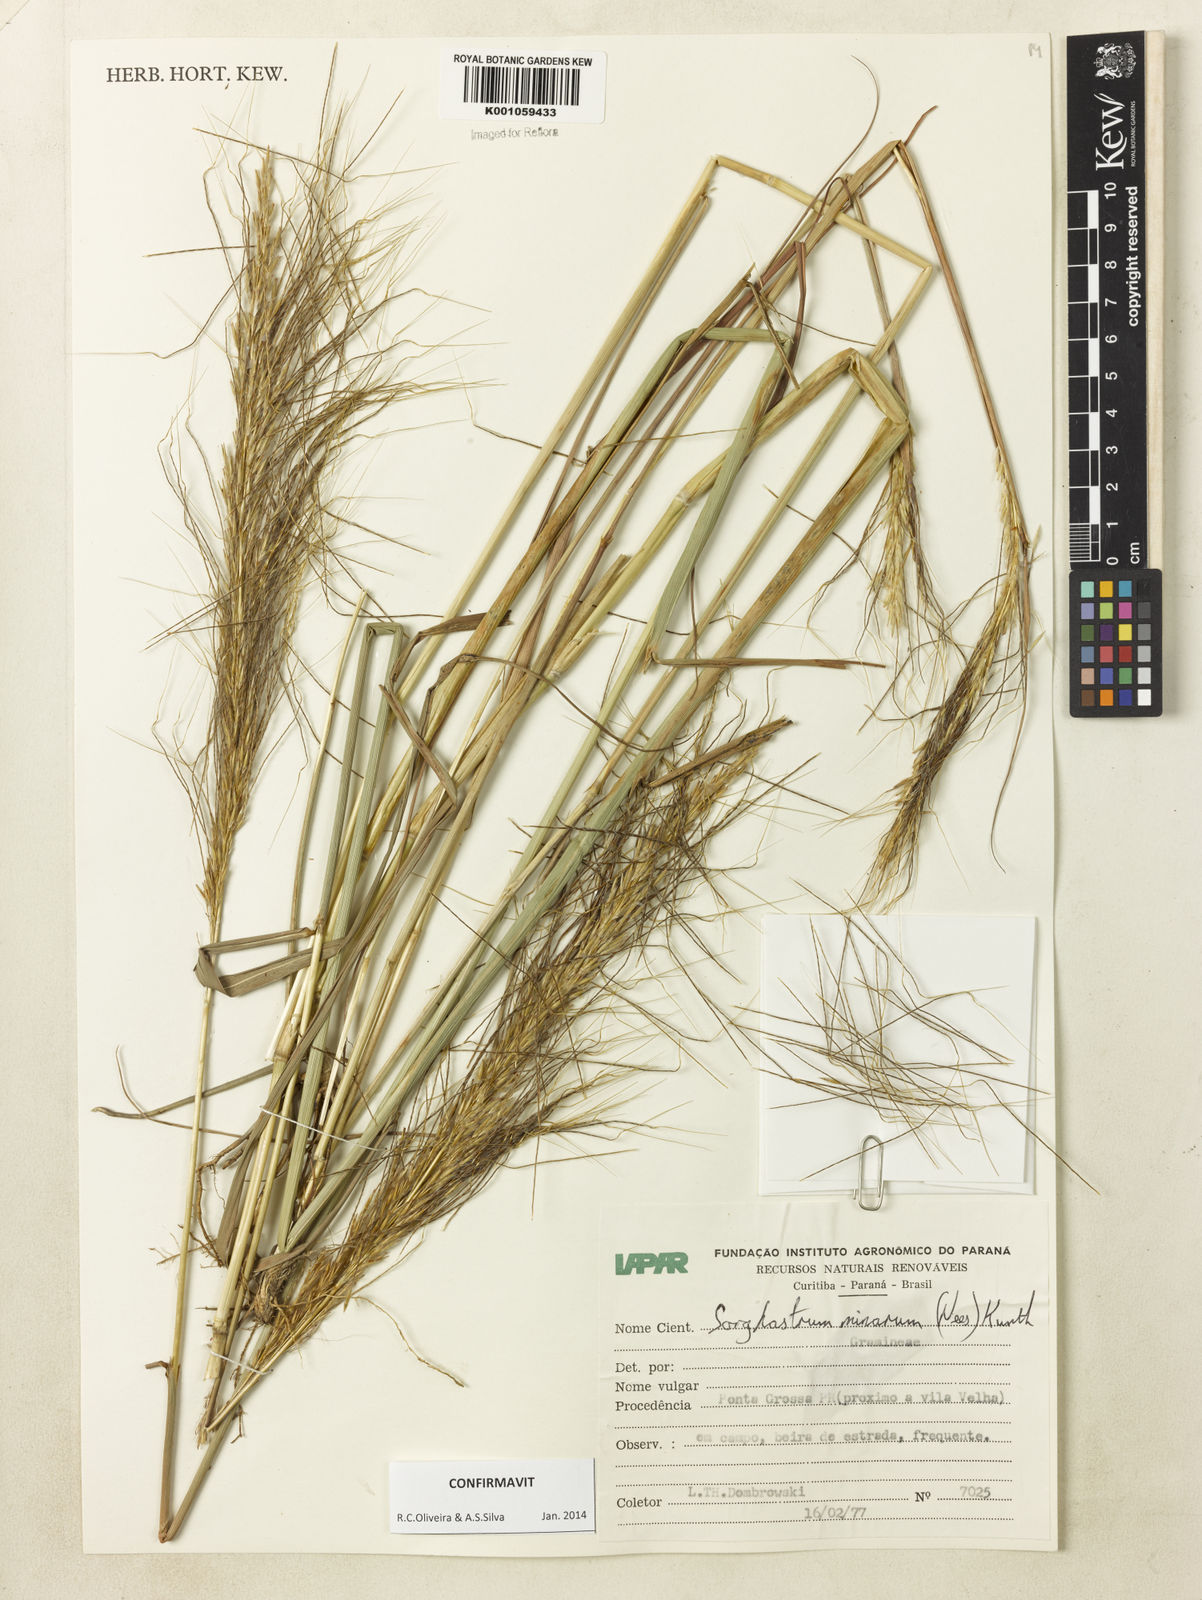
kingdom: Plantae
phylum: Tracheophyta
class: Liliopsida
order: Poales
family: Poaceae
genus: Sorghastrum
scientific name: Sorghastrum minarum
